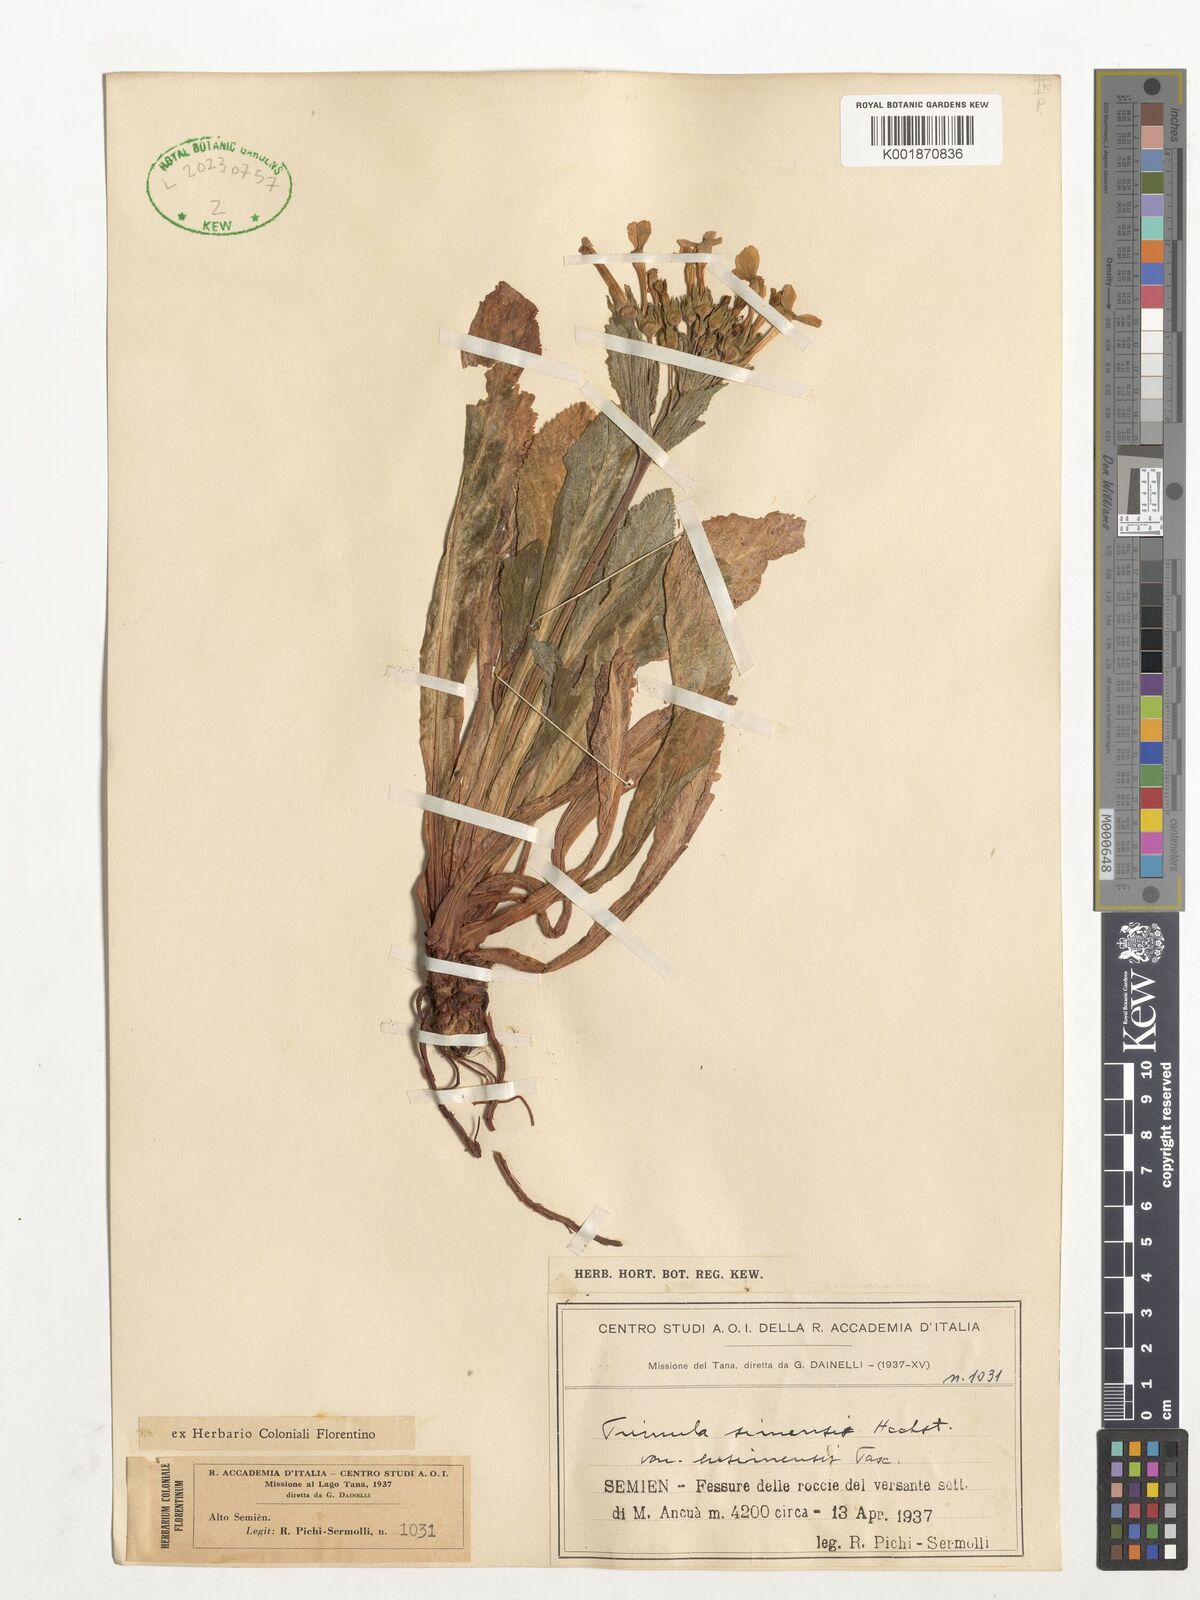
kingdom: Plantae
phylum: Tracheophyta
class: Magnoliopsida
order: Ericales
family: Primulaceae
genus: Evotrochis
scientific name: Evotrochis simensis
